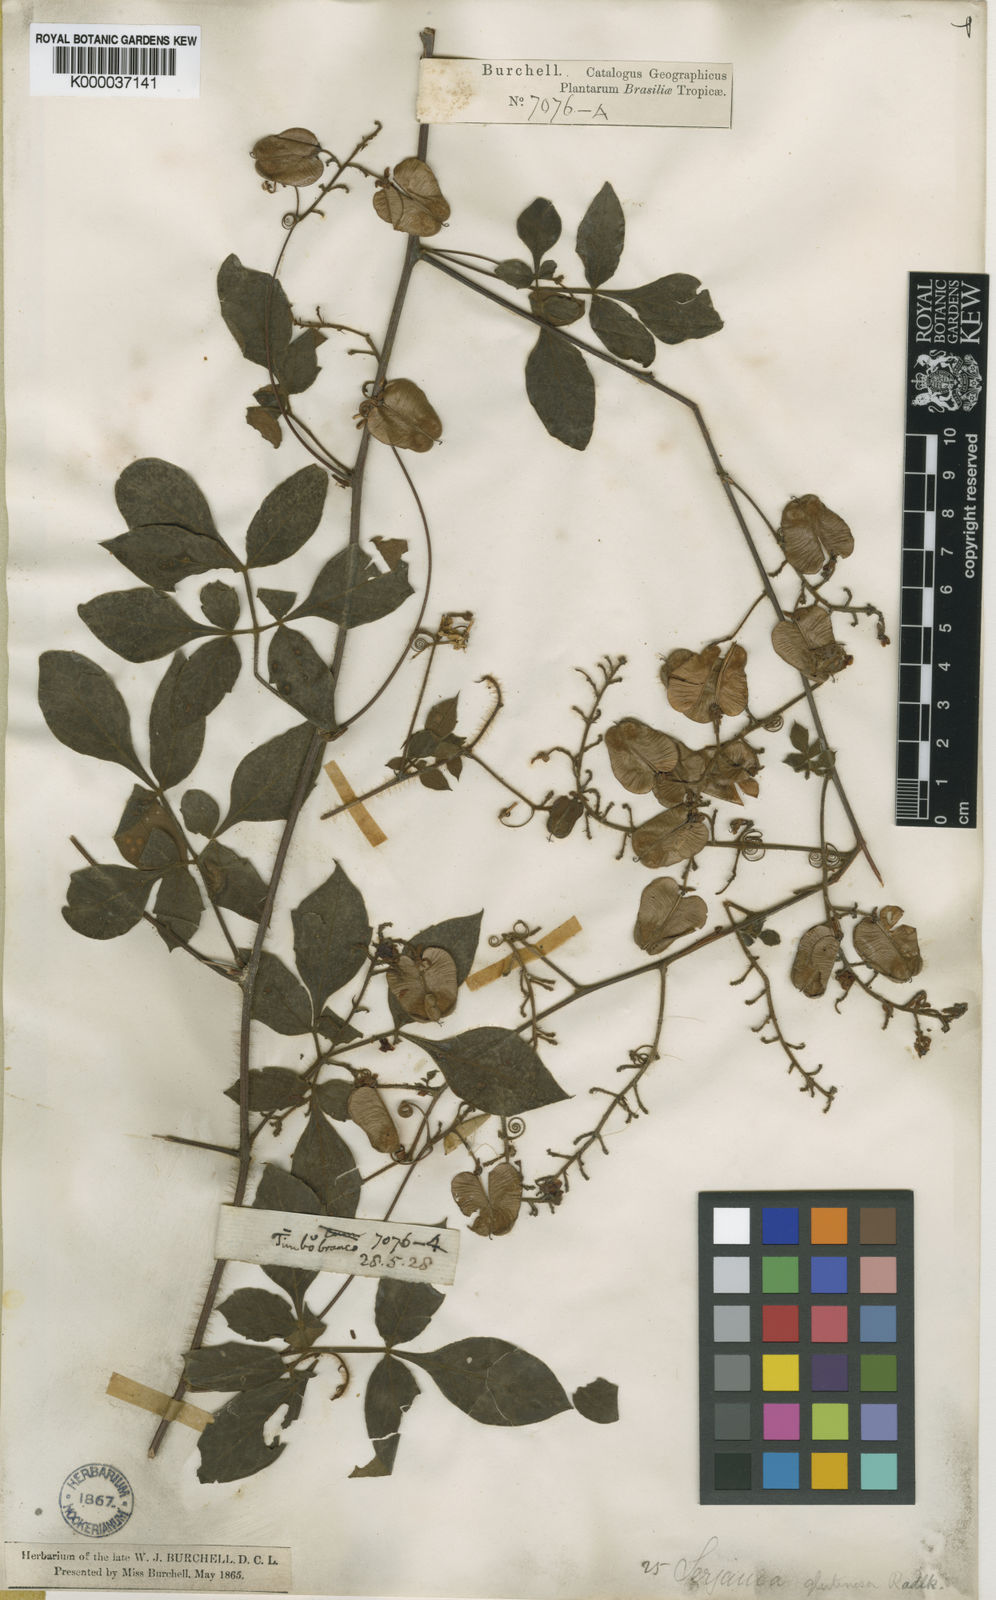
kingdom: Plantae
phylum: Tracheophyta
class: Magnoliopsida
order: Sapindales
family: Sapindaceae
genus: Serjania
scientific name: Serjania glutinosa
